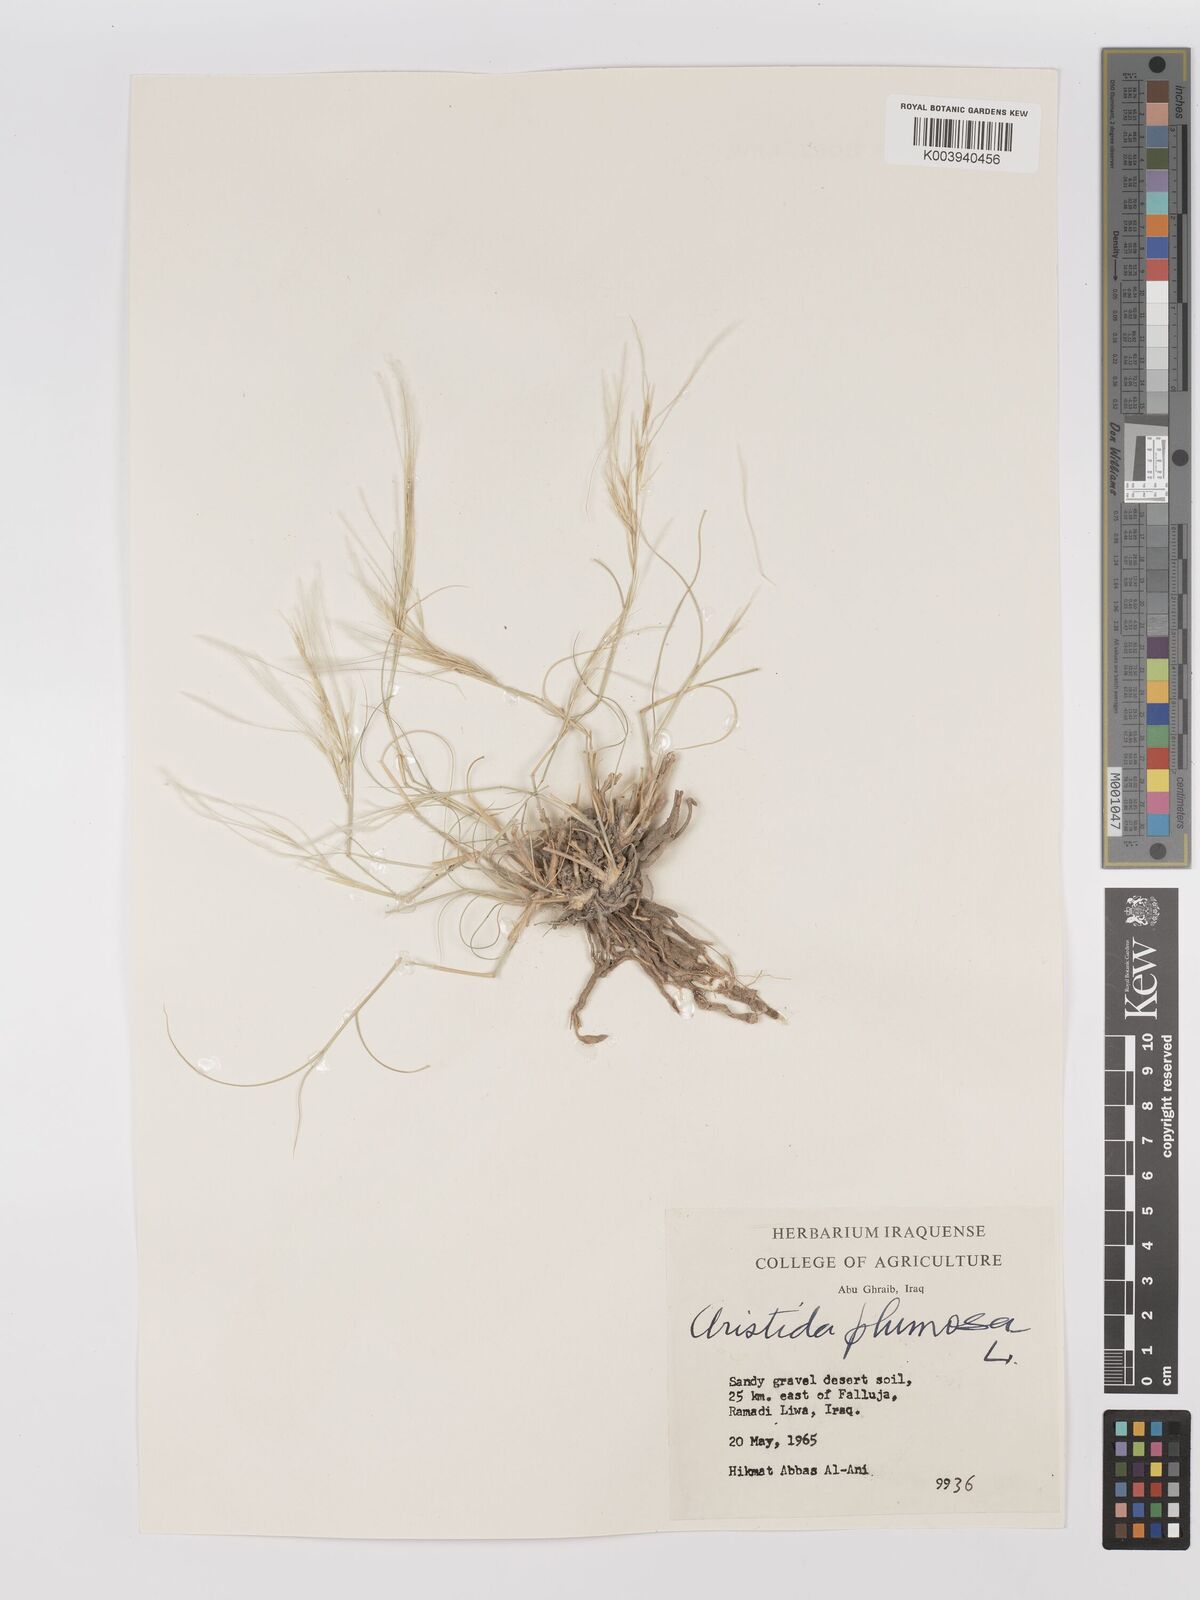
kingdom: Plantae
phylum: Tracheophyta
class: Liliopsida
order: Poales
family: Poaceae
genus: Stipagrostis
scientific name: Stipagrostis plumosa
